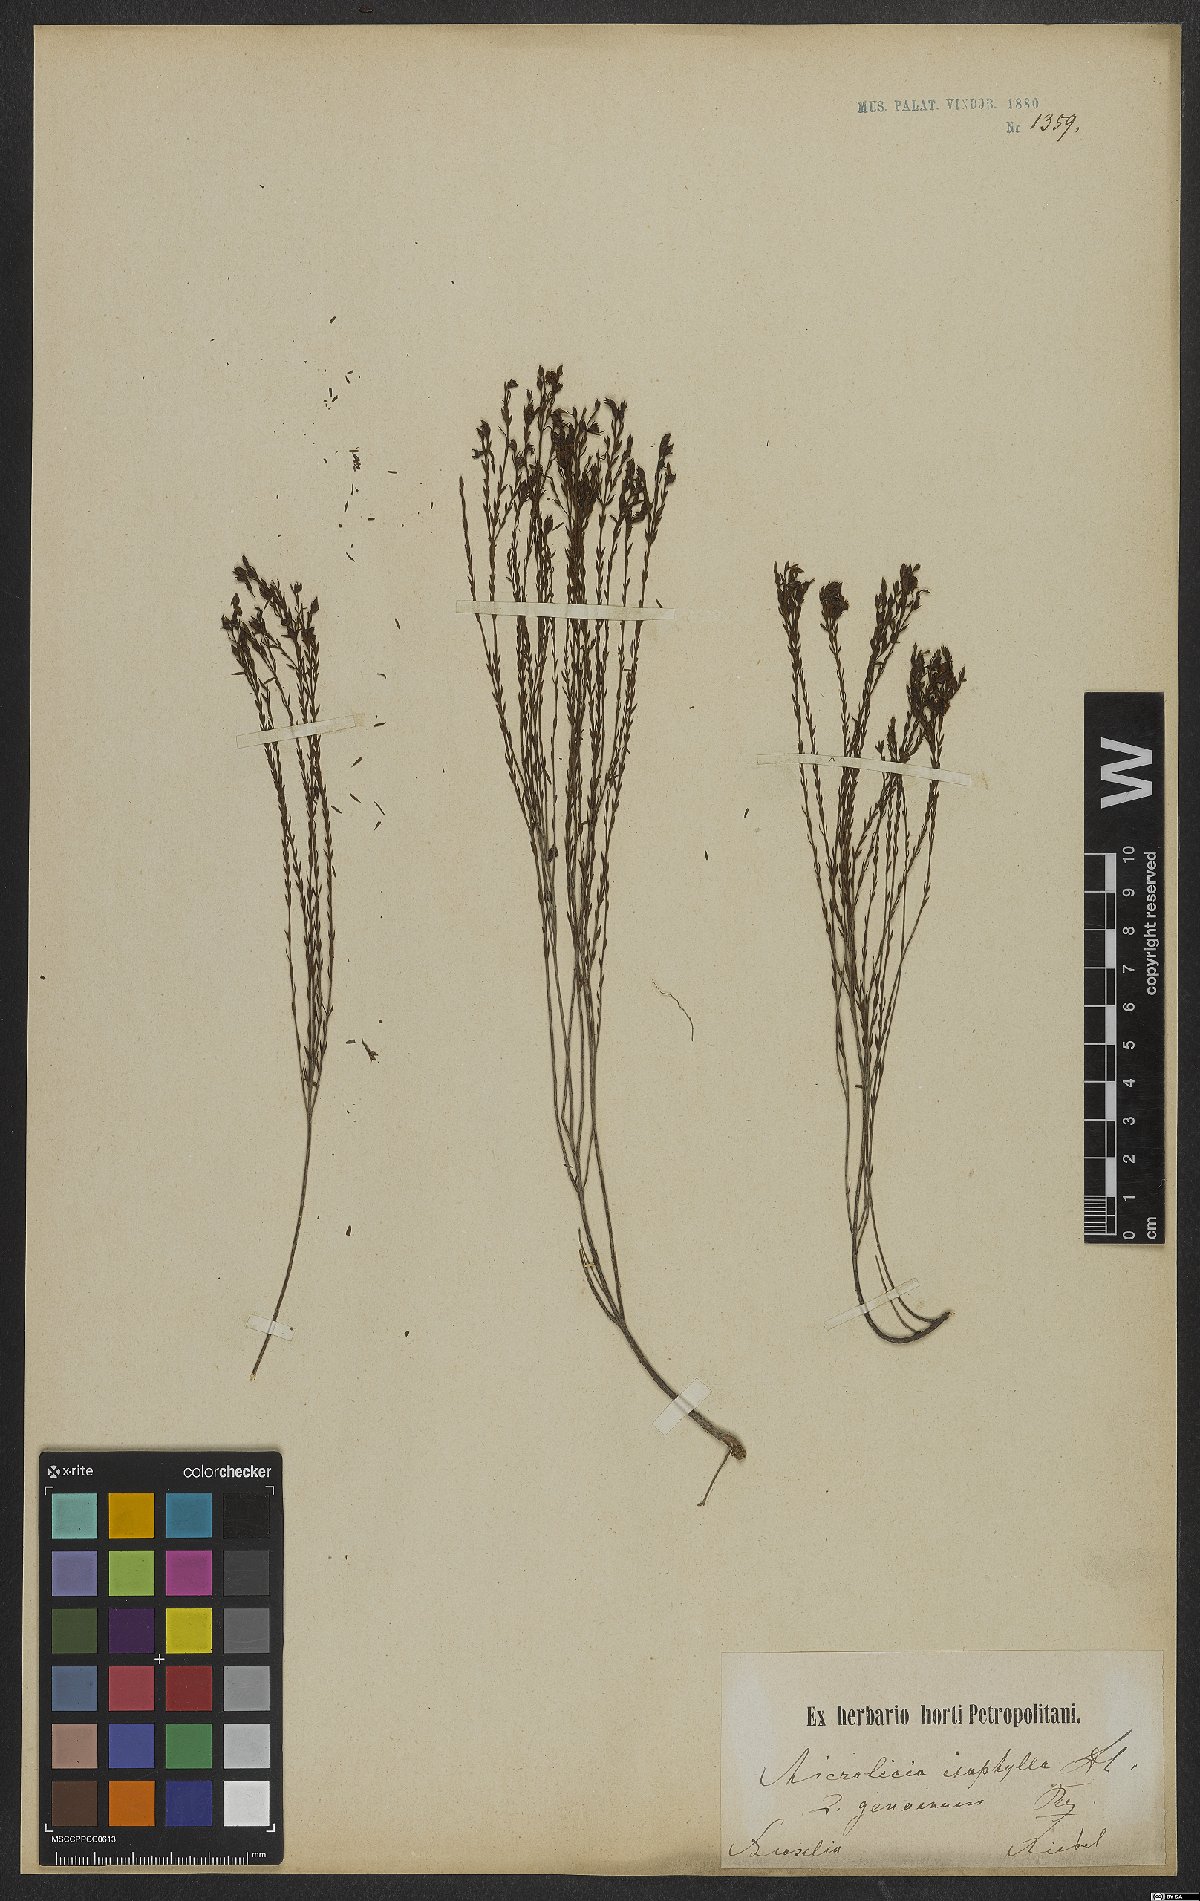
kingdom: Plantae
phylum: Tracheophyta
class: Magnoliopsida
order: Myrtales
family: Melastomataceae
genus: Microlicia
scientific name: Microlicia isophylla
